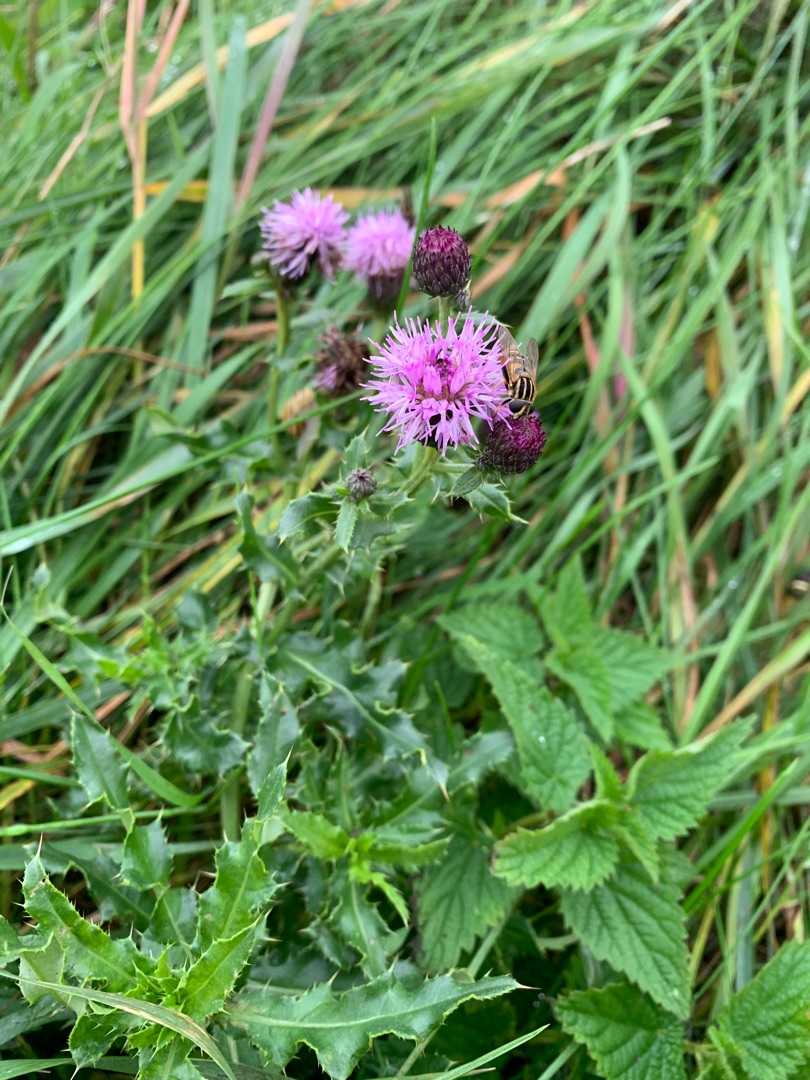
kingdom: Plantae
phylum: Tracheophyta
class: Magnoliopsida
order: Asterales
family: Asteraceae
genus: Cirsium
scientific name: Cirsium arvense
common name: Ager-tidsel
